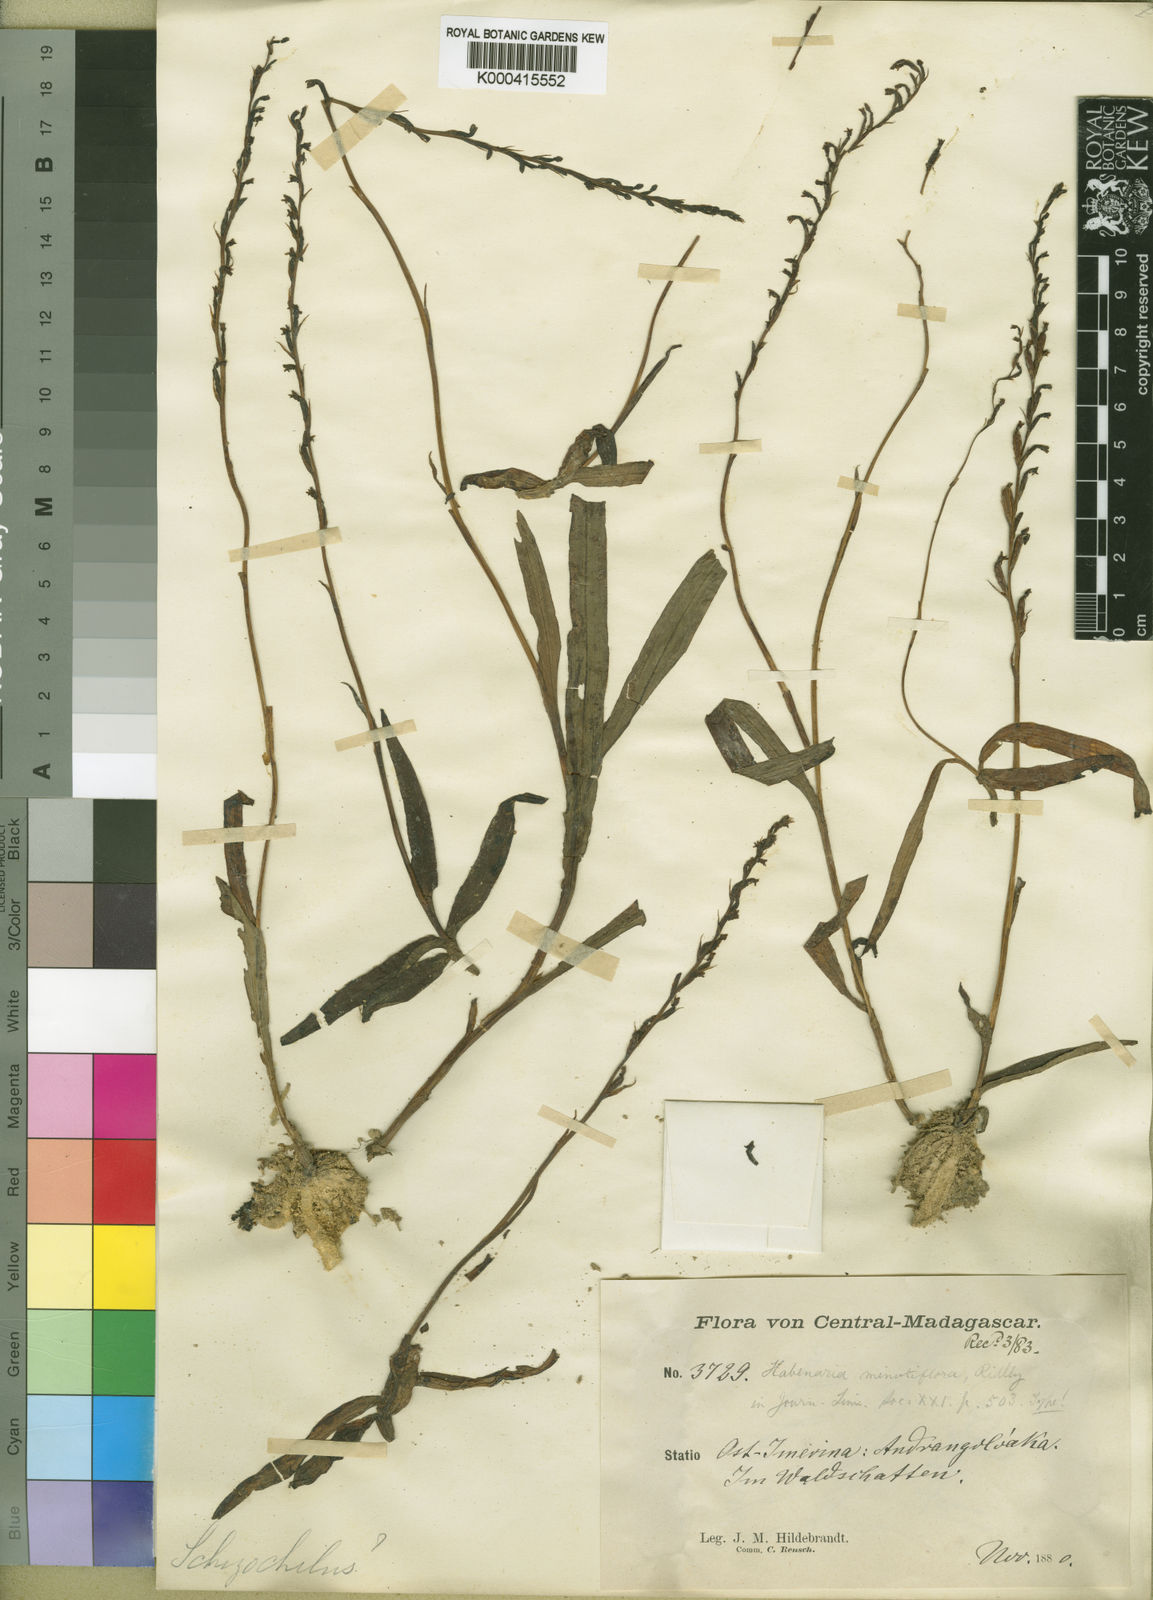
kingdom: Plantae
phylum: Tracheophyta
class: Liliopsida
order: Asparagales
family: Orchidaceae
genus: Benthamia
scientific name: Benthamia africana
